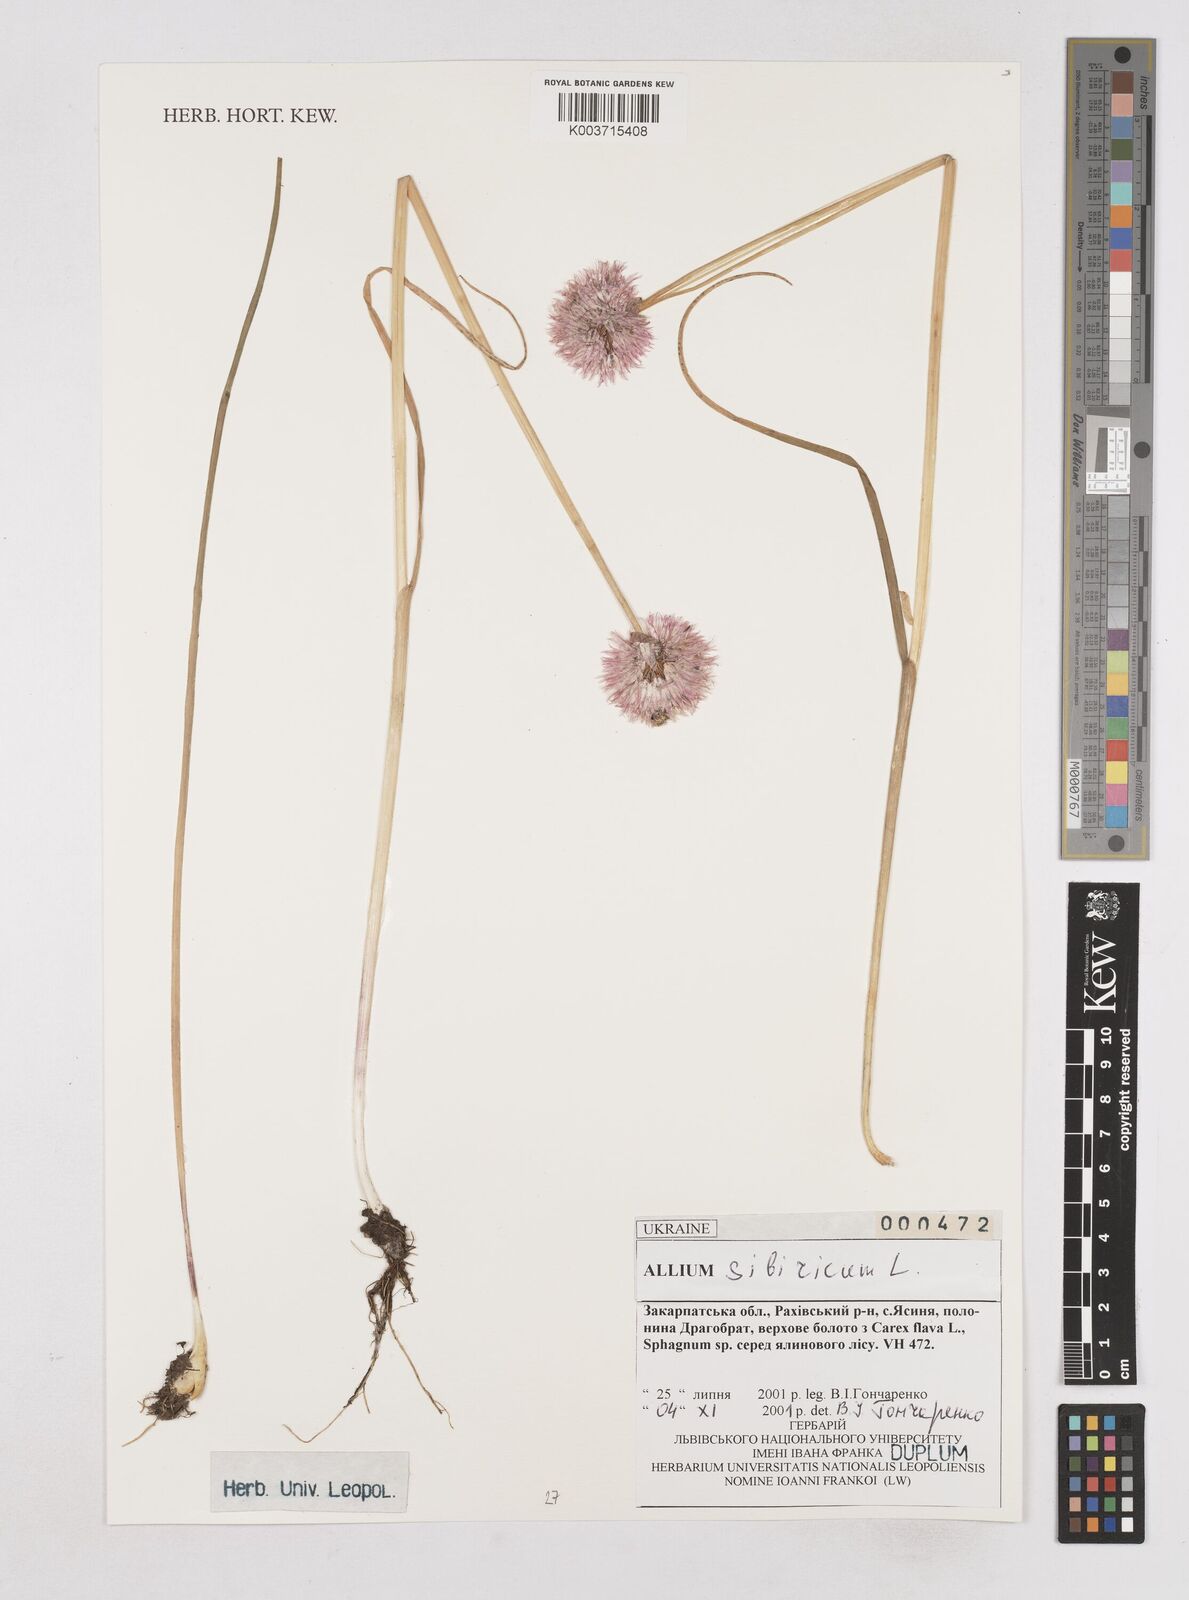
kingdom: Plantae
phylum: Tracheophyta
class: Liliopsida
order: Asparagales
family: Amaryllidaceae
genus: Allium
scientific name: Allium schoenoprasum
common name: Chives
